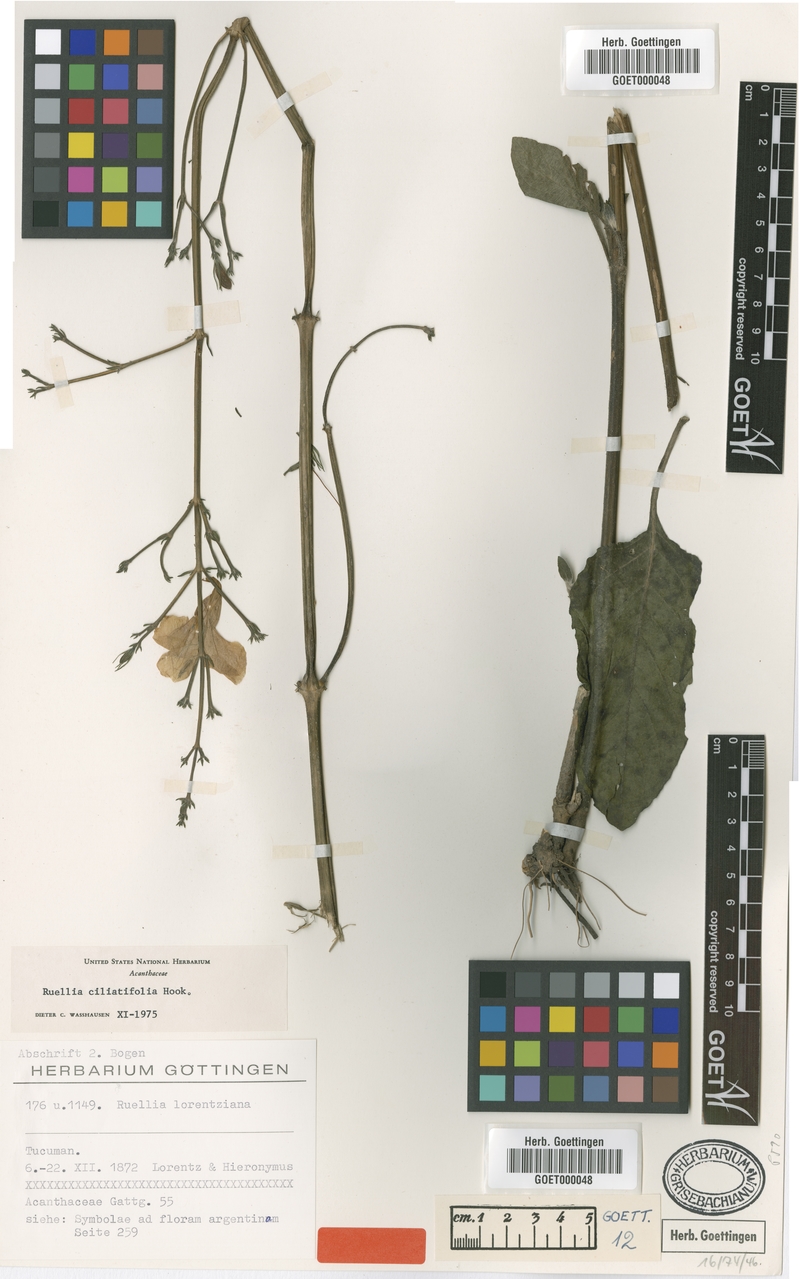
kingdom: Plantae
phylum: Tracheophyta
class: Magnoliopsida
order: Lamiales
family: Acanthaceae
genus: Ruellia
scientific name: Ruellia ciliatiflora
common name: Hairyflower wild petunia
